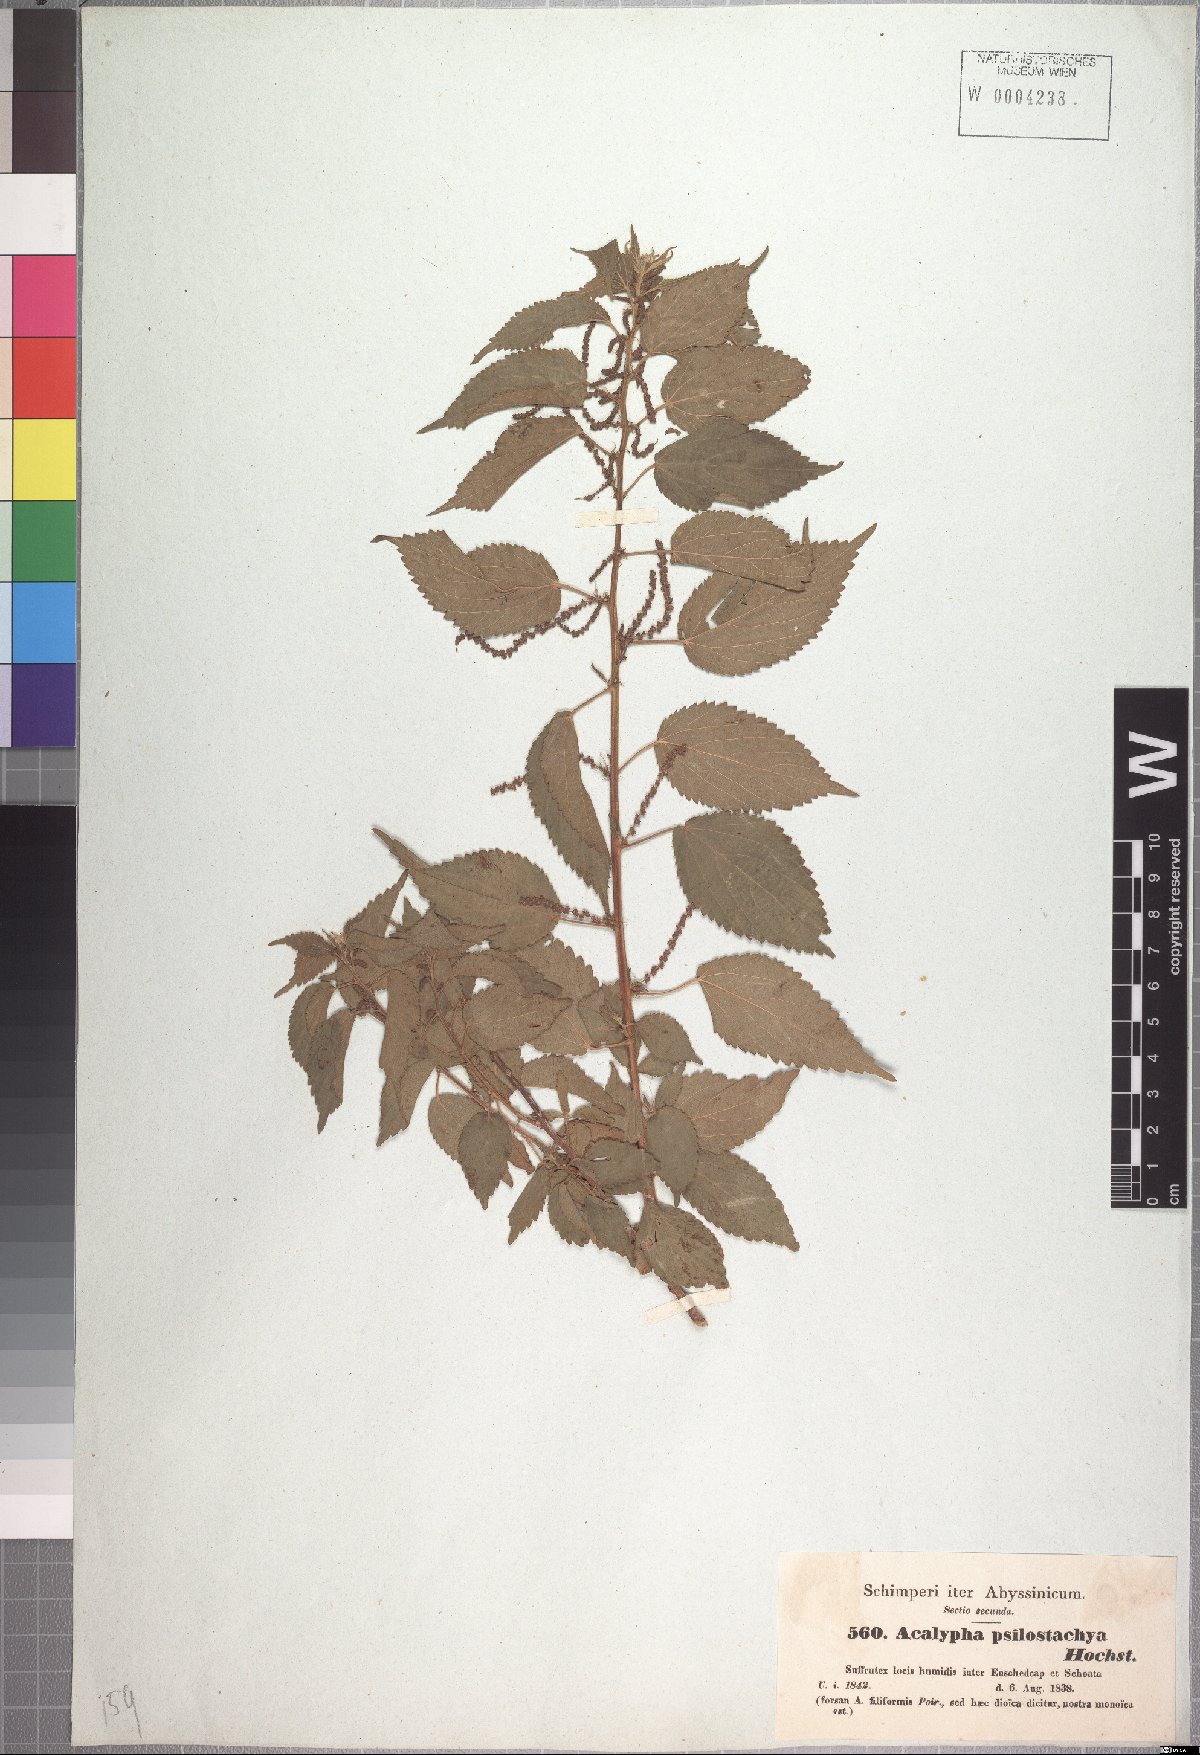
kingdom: Plantae
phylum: Tracheophyta
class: Magnoliopsida
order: Malpighiales
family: Euphorbiaceae
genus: Acalypha
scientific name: Acalypha psilostachya
